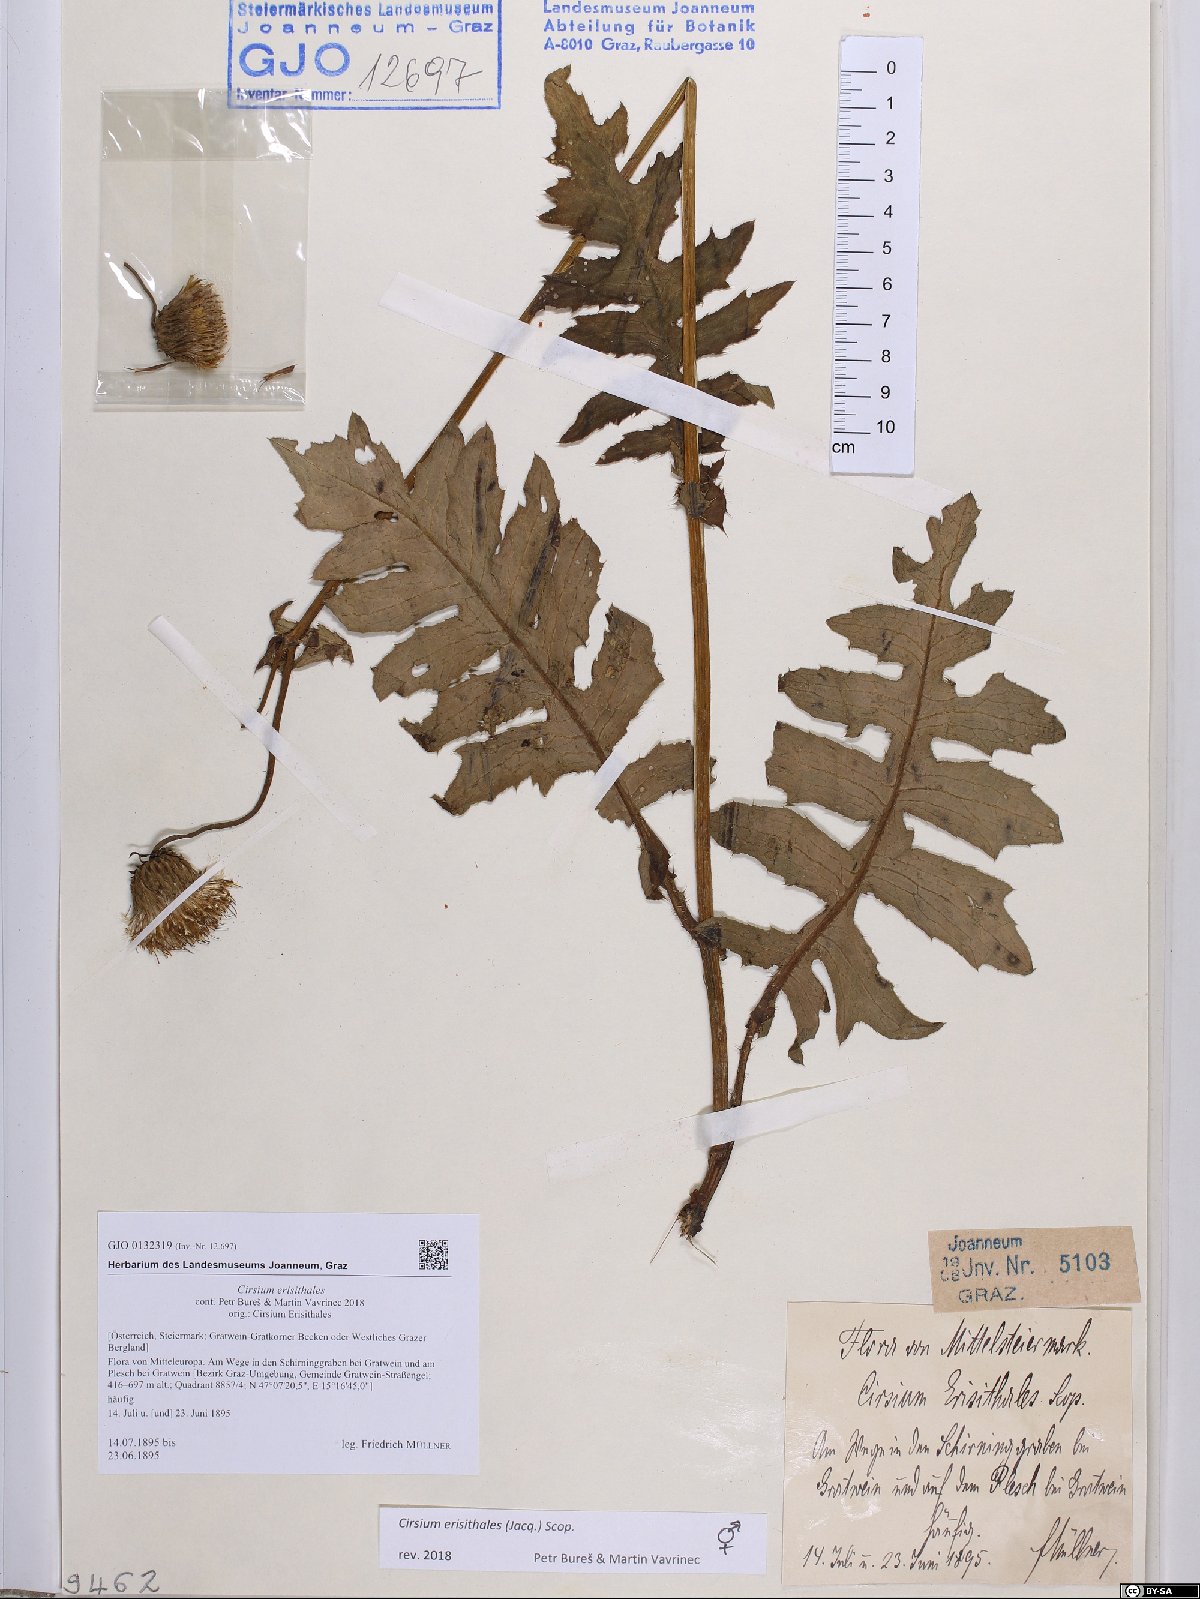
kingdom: Plantae
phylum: Tracheophyta
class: Magnoliopsida
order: Asterales
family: Asteraceae
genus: Cirsium
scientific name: Cirsium erisithales
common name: Yellow thistle
